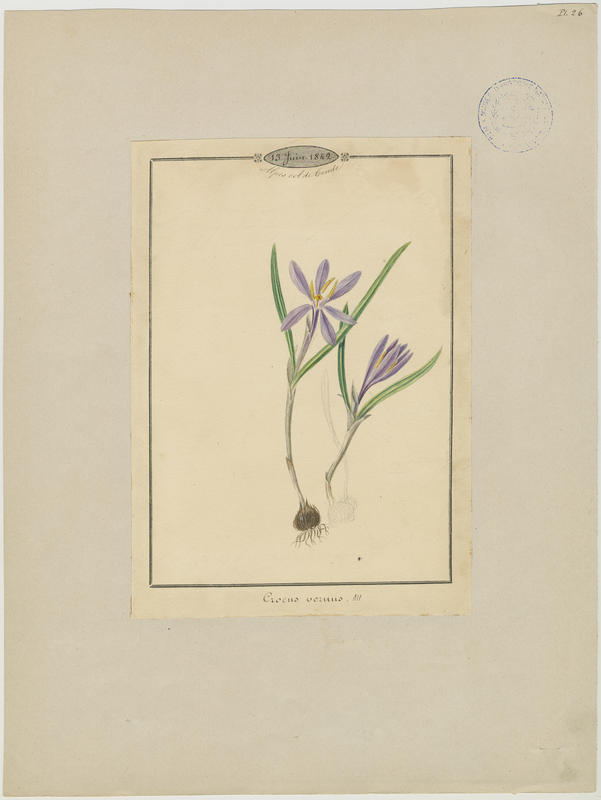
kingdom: Plantae
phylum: Tracheophyta
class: Liliopsida
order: Asparagales
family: Iridaceae
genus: Crocus
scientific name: Crocus vernus
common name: Spring crocus
